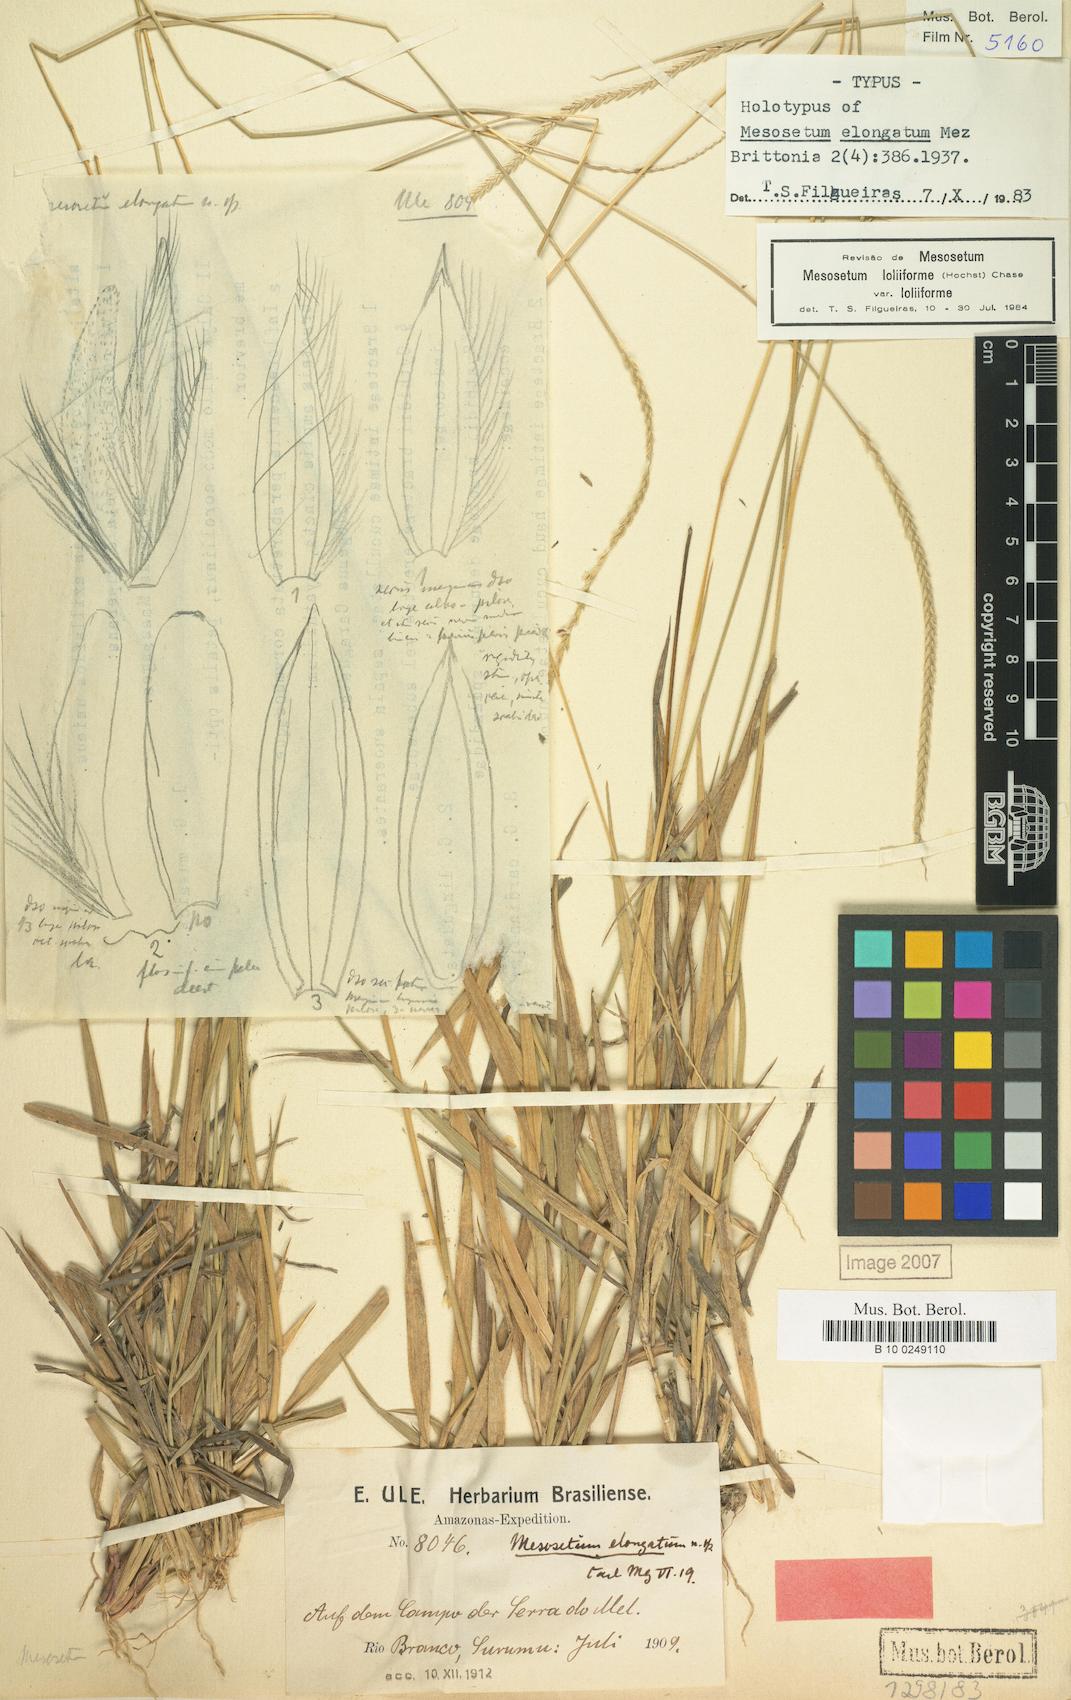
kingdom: Plantae
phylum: Tracheophyta
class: Liliopsida
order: Poales
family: Poaceae
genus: Mesosetum
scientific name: Mesosetum loliiforme
